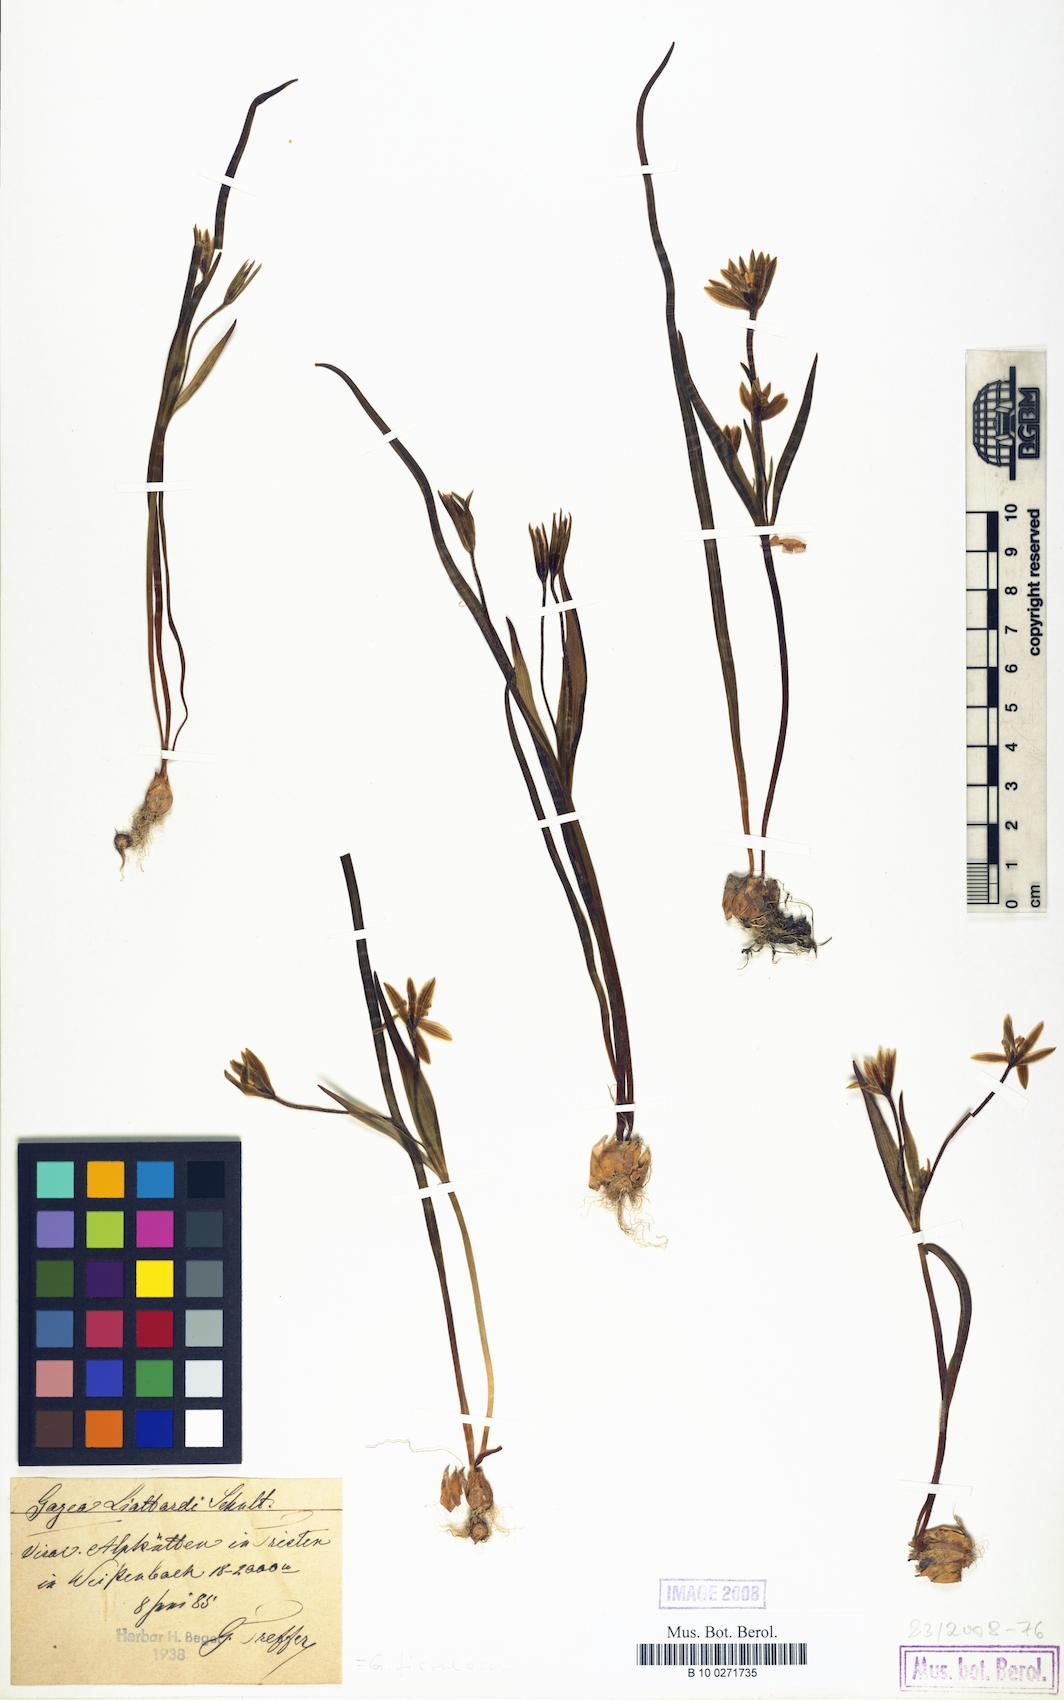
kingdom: Plantae
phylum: Tracheophyta
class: Liliopsida
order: Liliales
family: Liliaceae
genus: Gagea
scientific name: Gagea bohemica
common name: Early star-of-bethlehem
